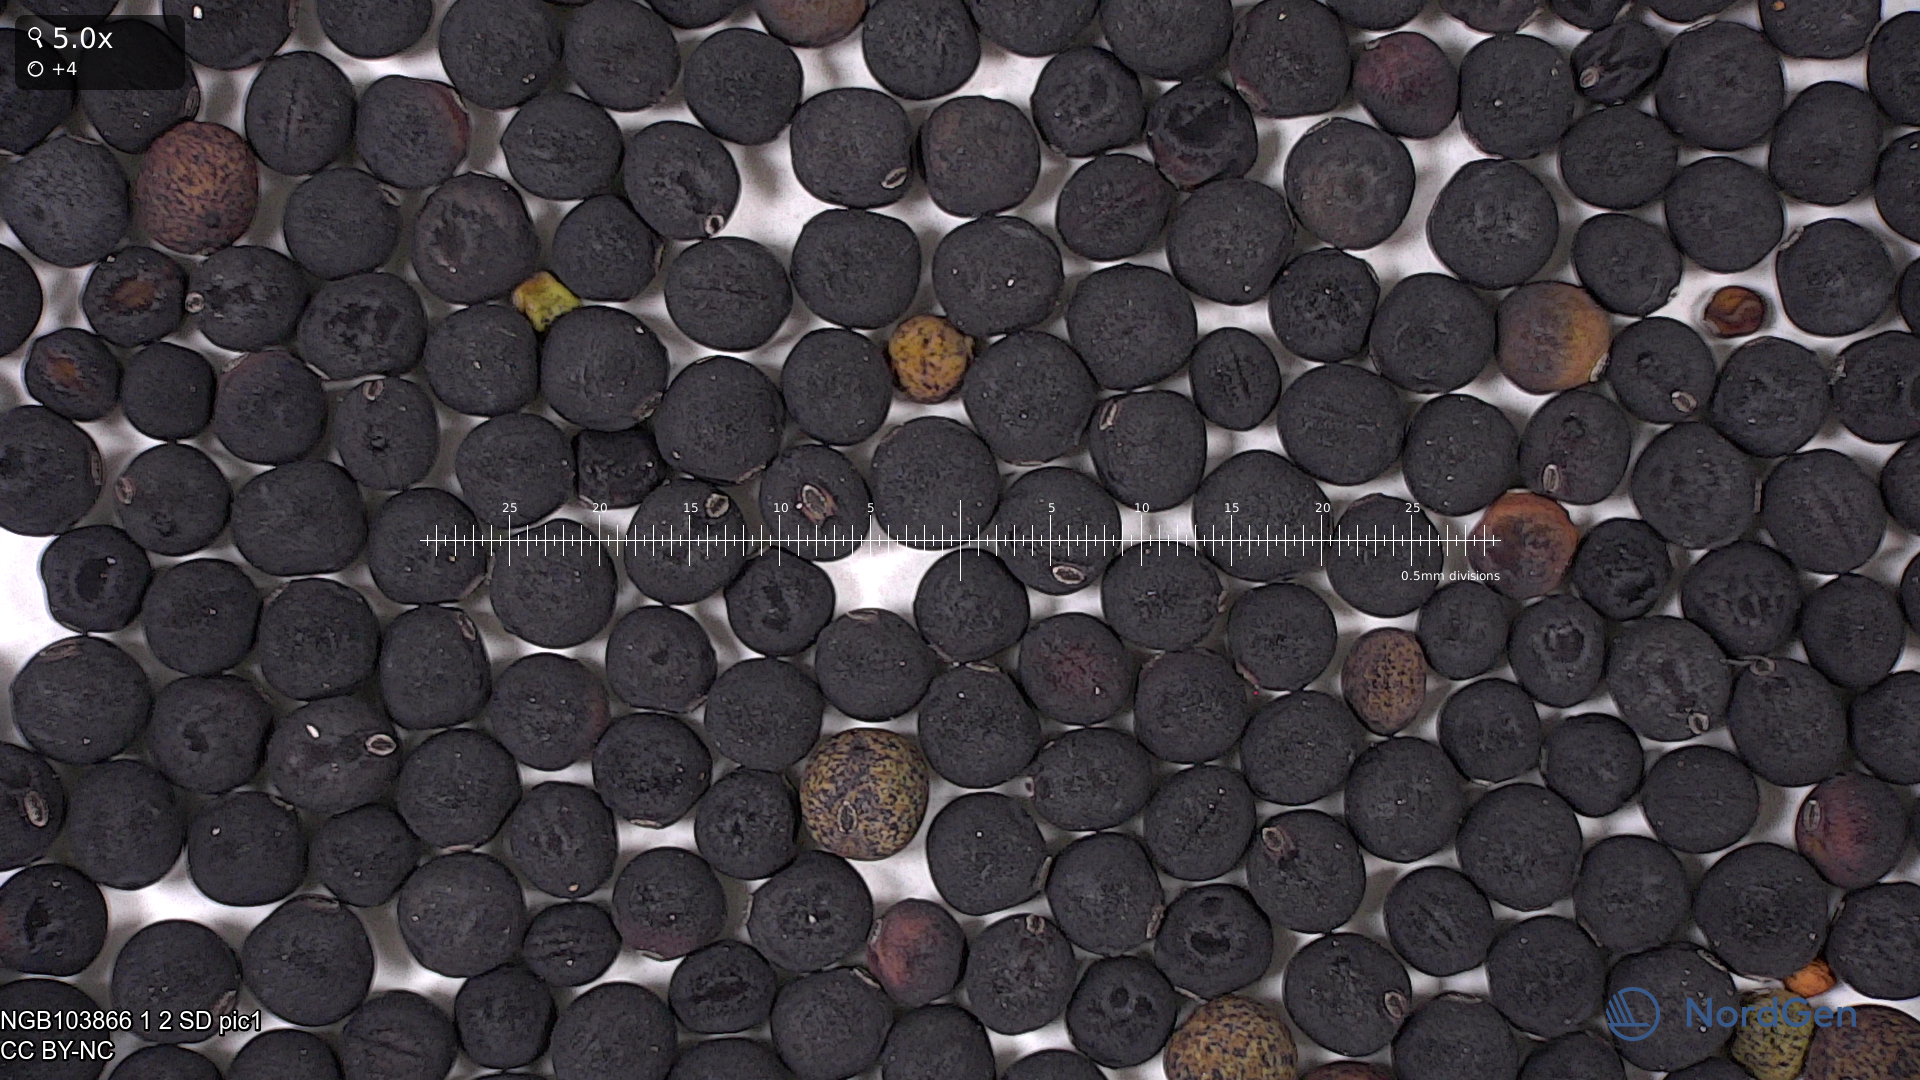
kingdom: Plantae
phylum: Tracheophyta
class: Magnoliopsida
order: Fabales
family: Fabaceae
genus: Lathyrus
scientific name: Lathyrus oleraceus
